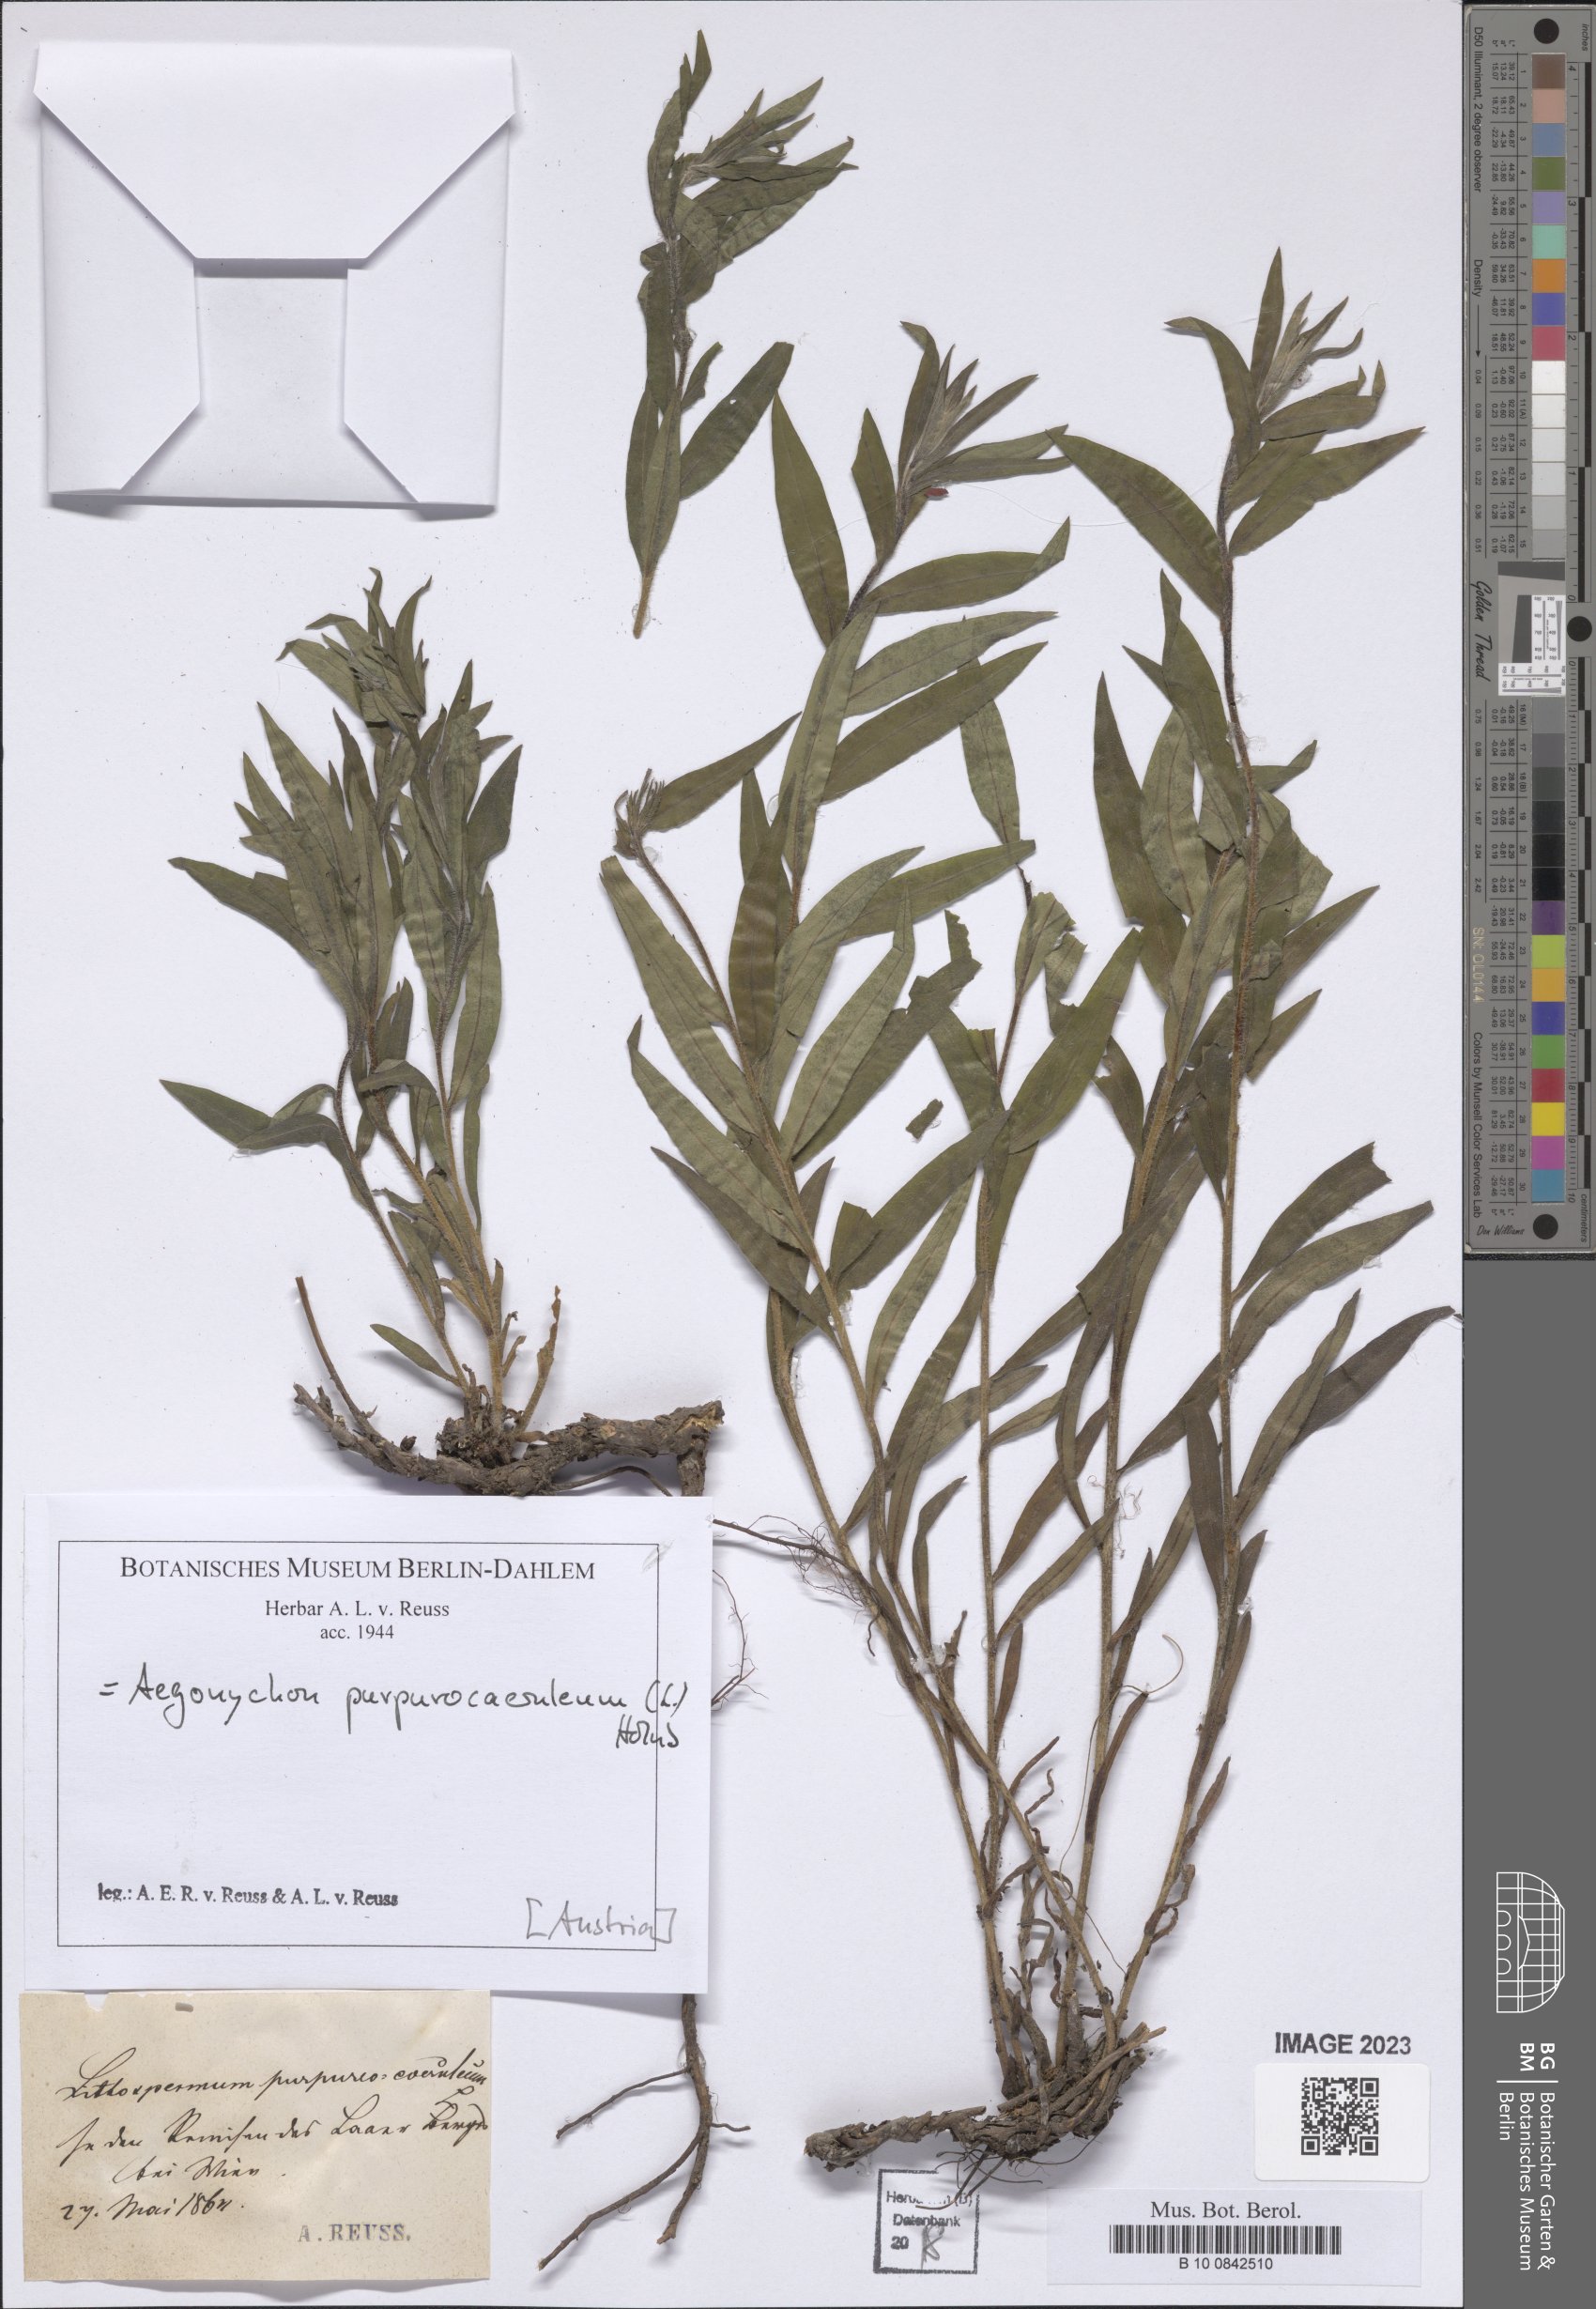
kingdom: Plantae
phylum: Tracheophyta
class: Magnoliopsida
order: Boraginales
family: Boraginaceae
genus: Aegonychon
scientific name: Aegonychon purpurocaeruleum
